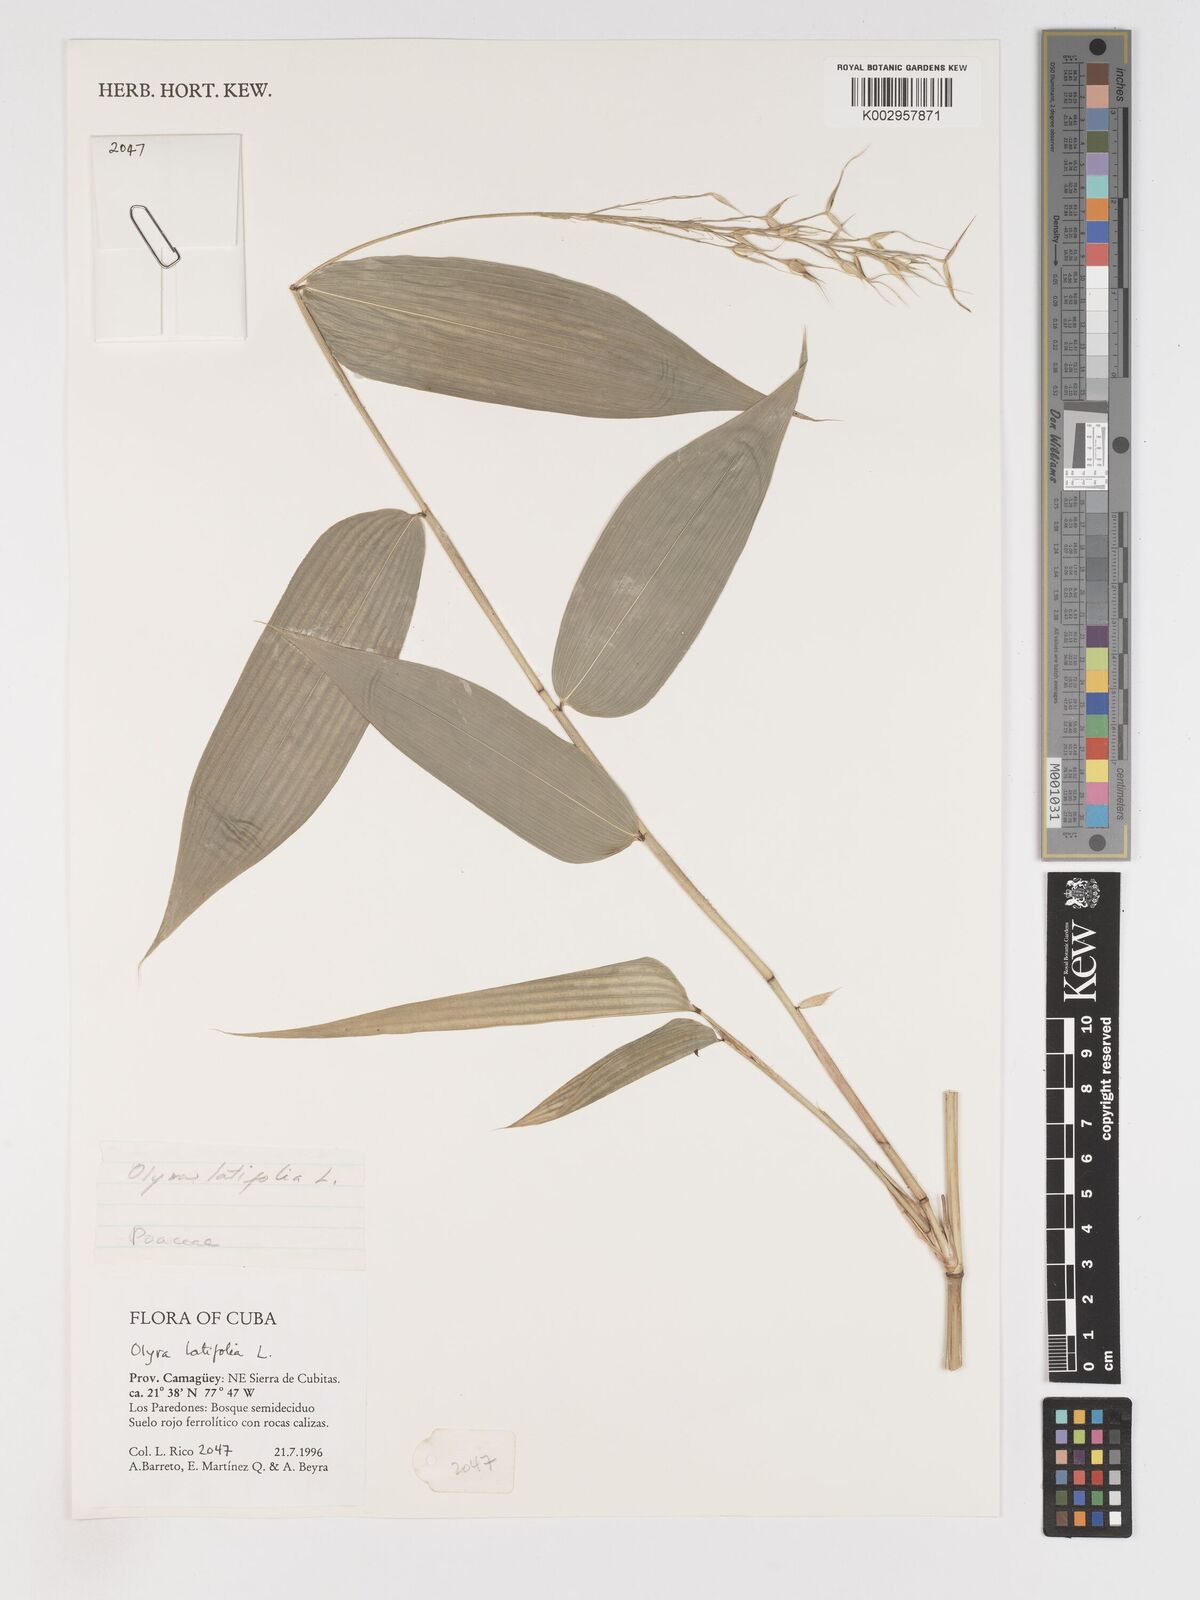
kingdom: Plantae
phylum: Tracheophyta
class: Liliopsida
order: Poales
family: Poaceae
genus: Olyra
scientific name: Olyra latifolia
